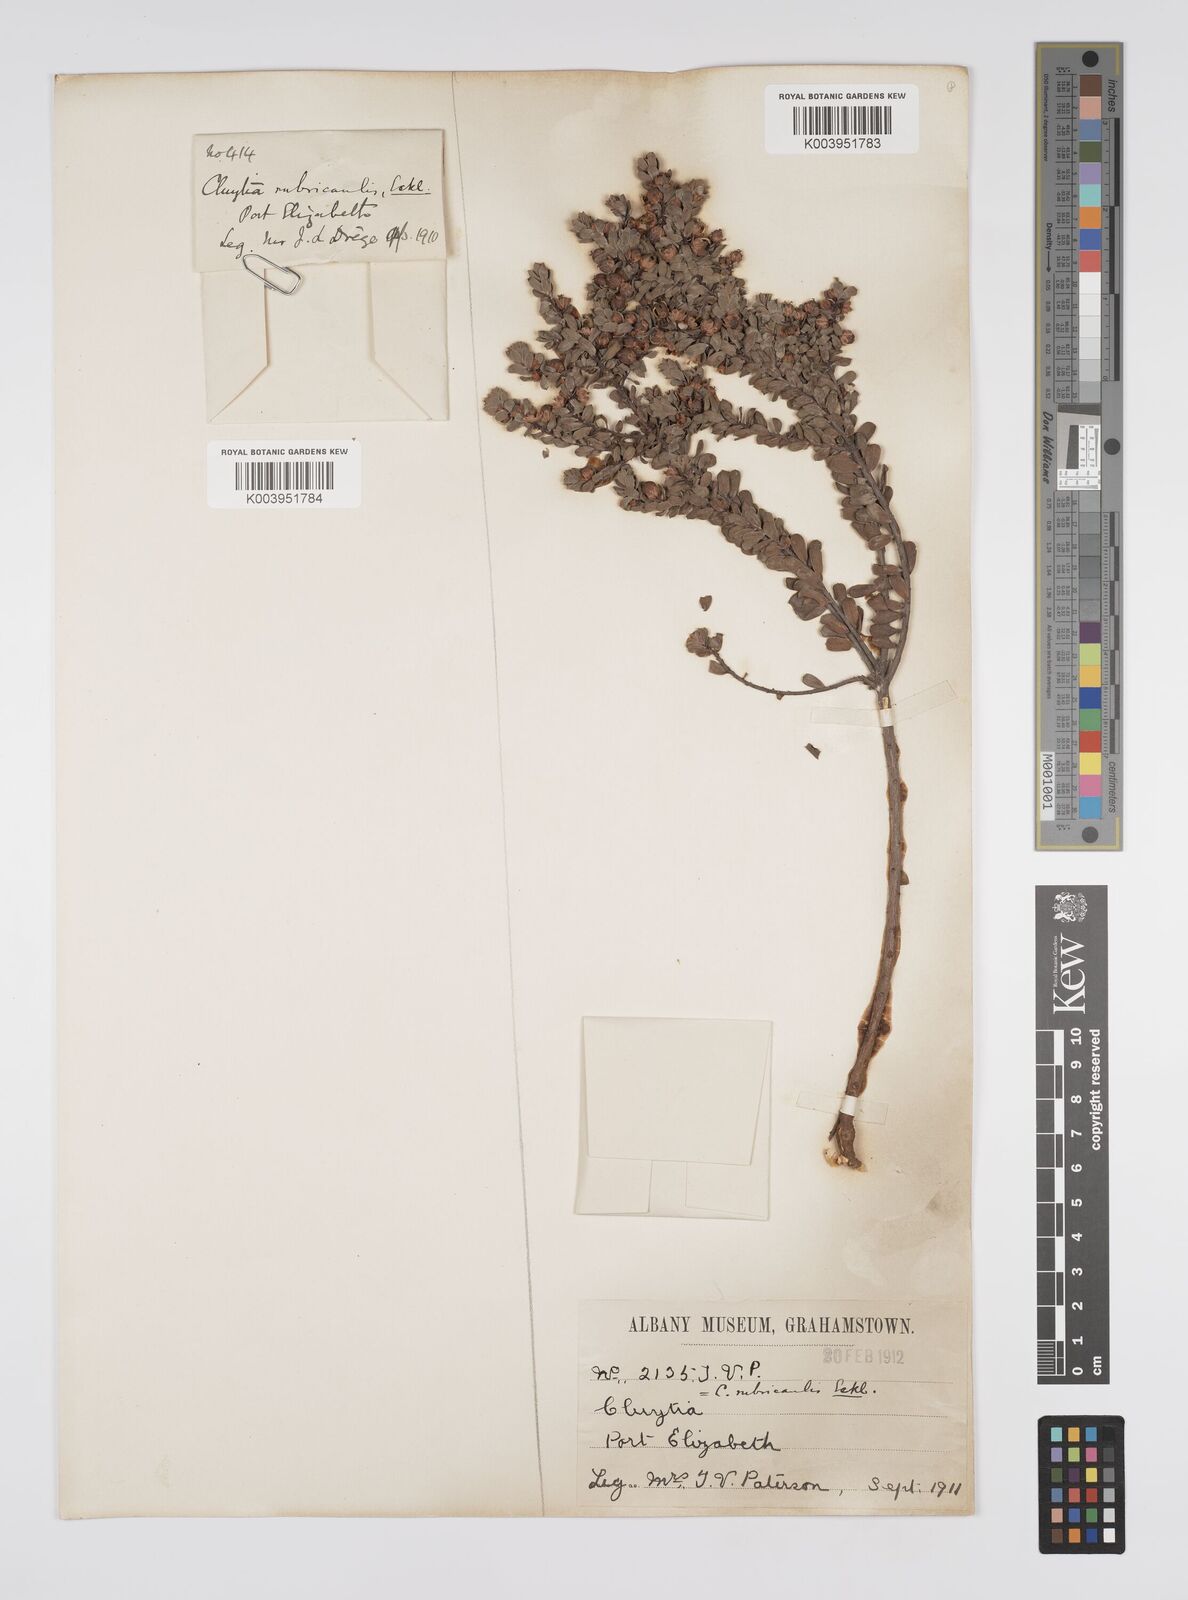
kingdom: Plantae
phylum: Tracheophyta
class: Magnoliopsida
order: Malpighiales
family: Peraceae
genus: Clutia
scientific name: Clutia rubricaulis
